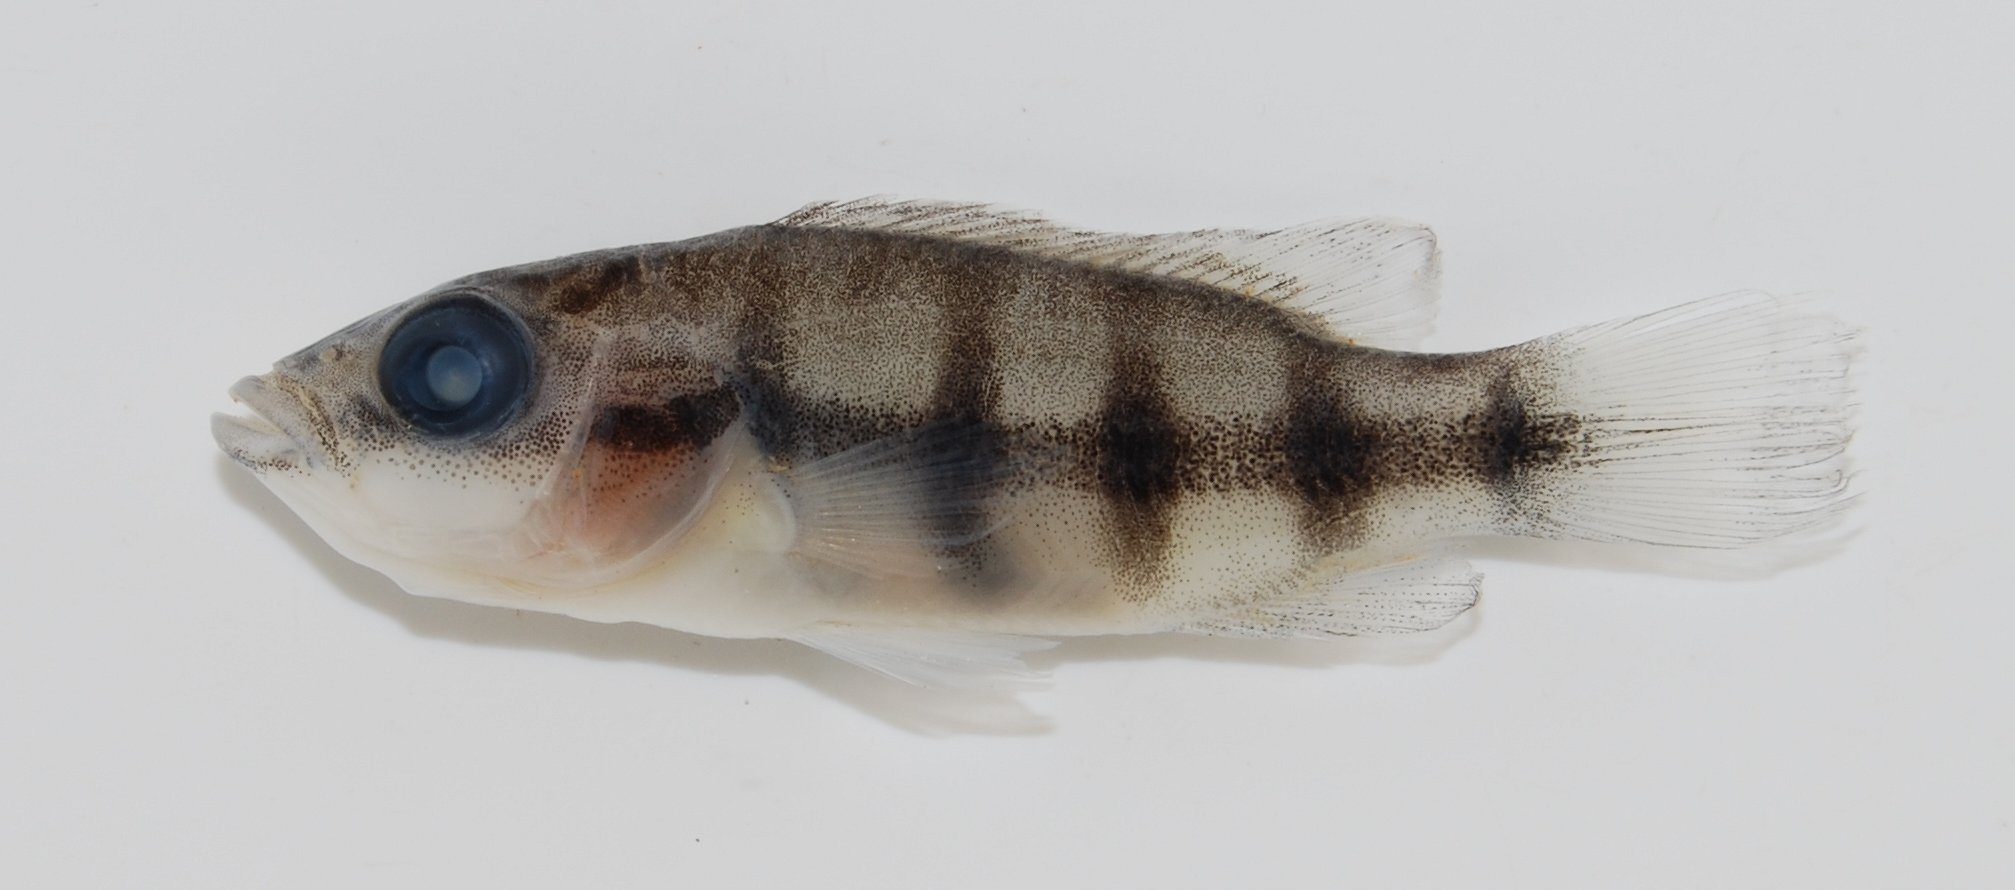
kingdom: Animalia
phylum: Chordata
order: Perciformes
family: Cichlidae
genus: Hemichromis
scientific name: Hemichromis fasciatus
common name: Banded jewelfish
